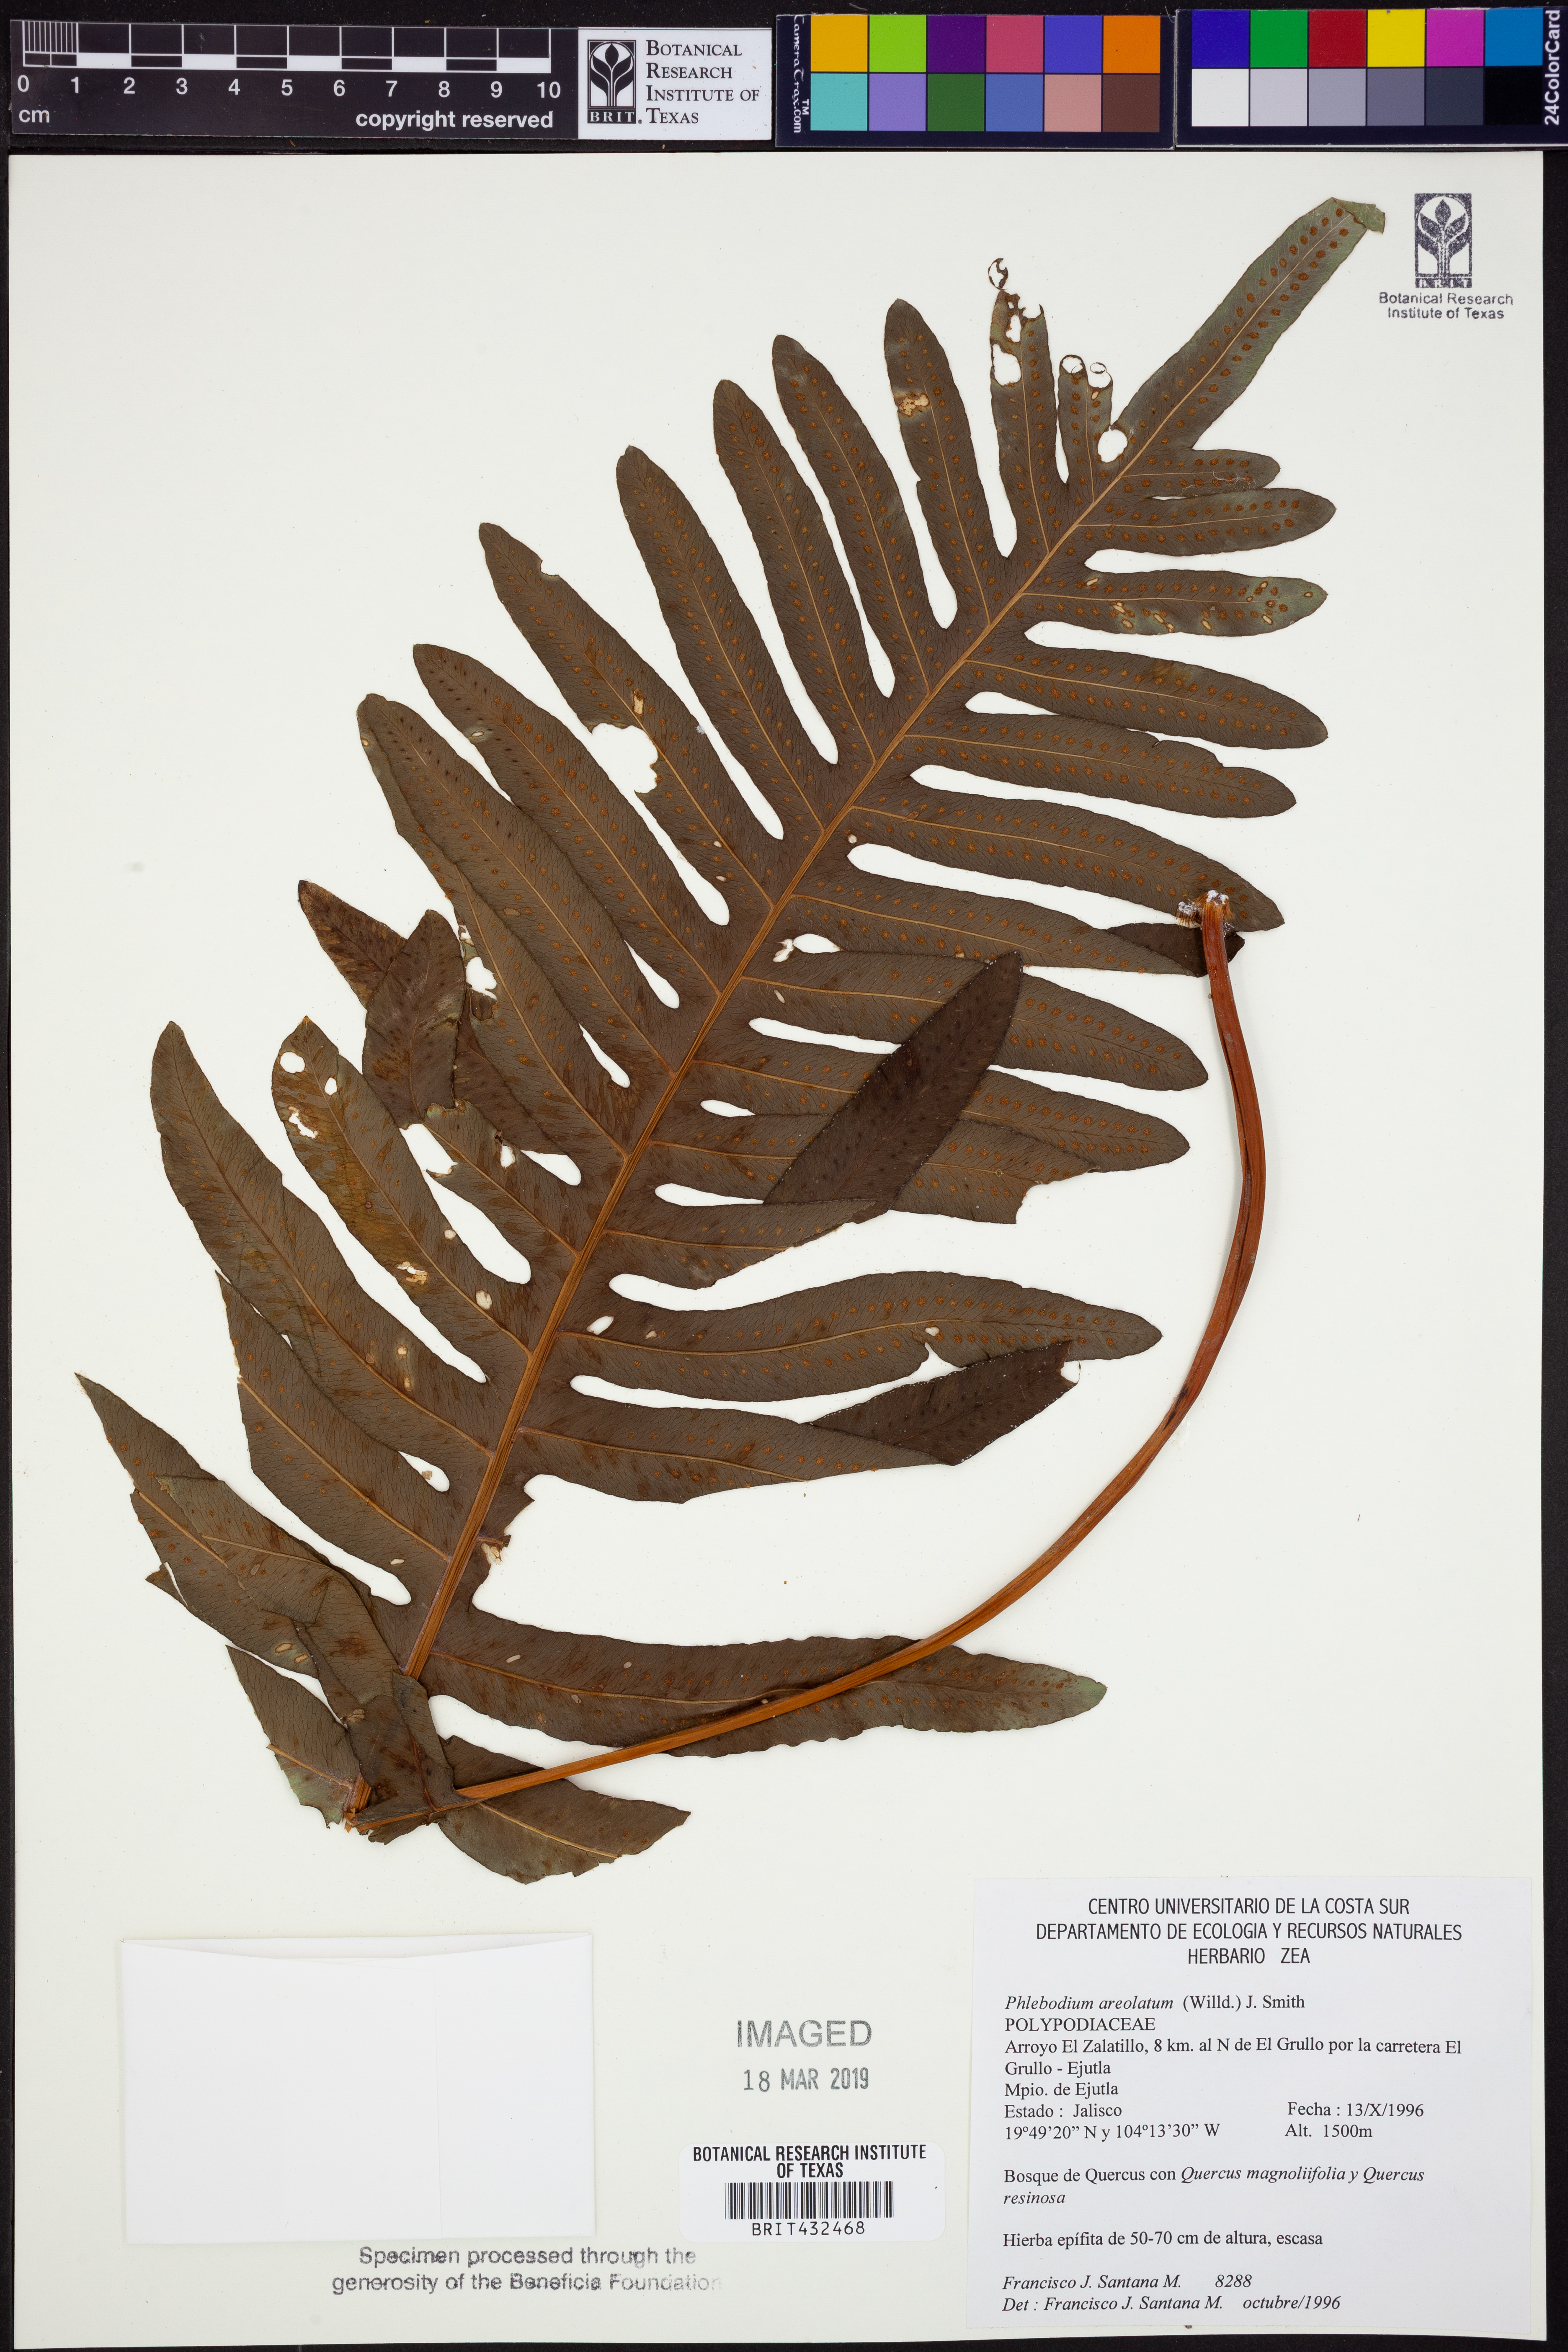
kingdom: Plantae
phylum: Tracheophyta
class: Polypodiopsida
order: Polypodiales
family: Polypodiaceae
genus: Phlebodium
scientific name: Phlebodium pseudoaureum
